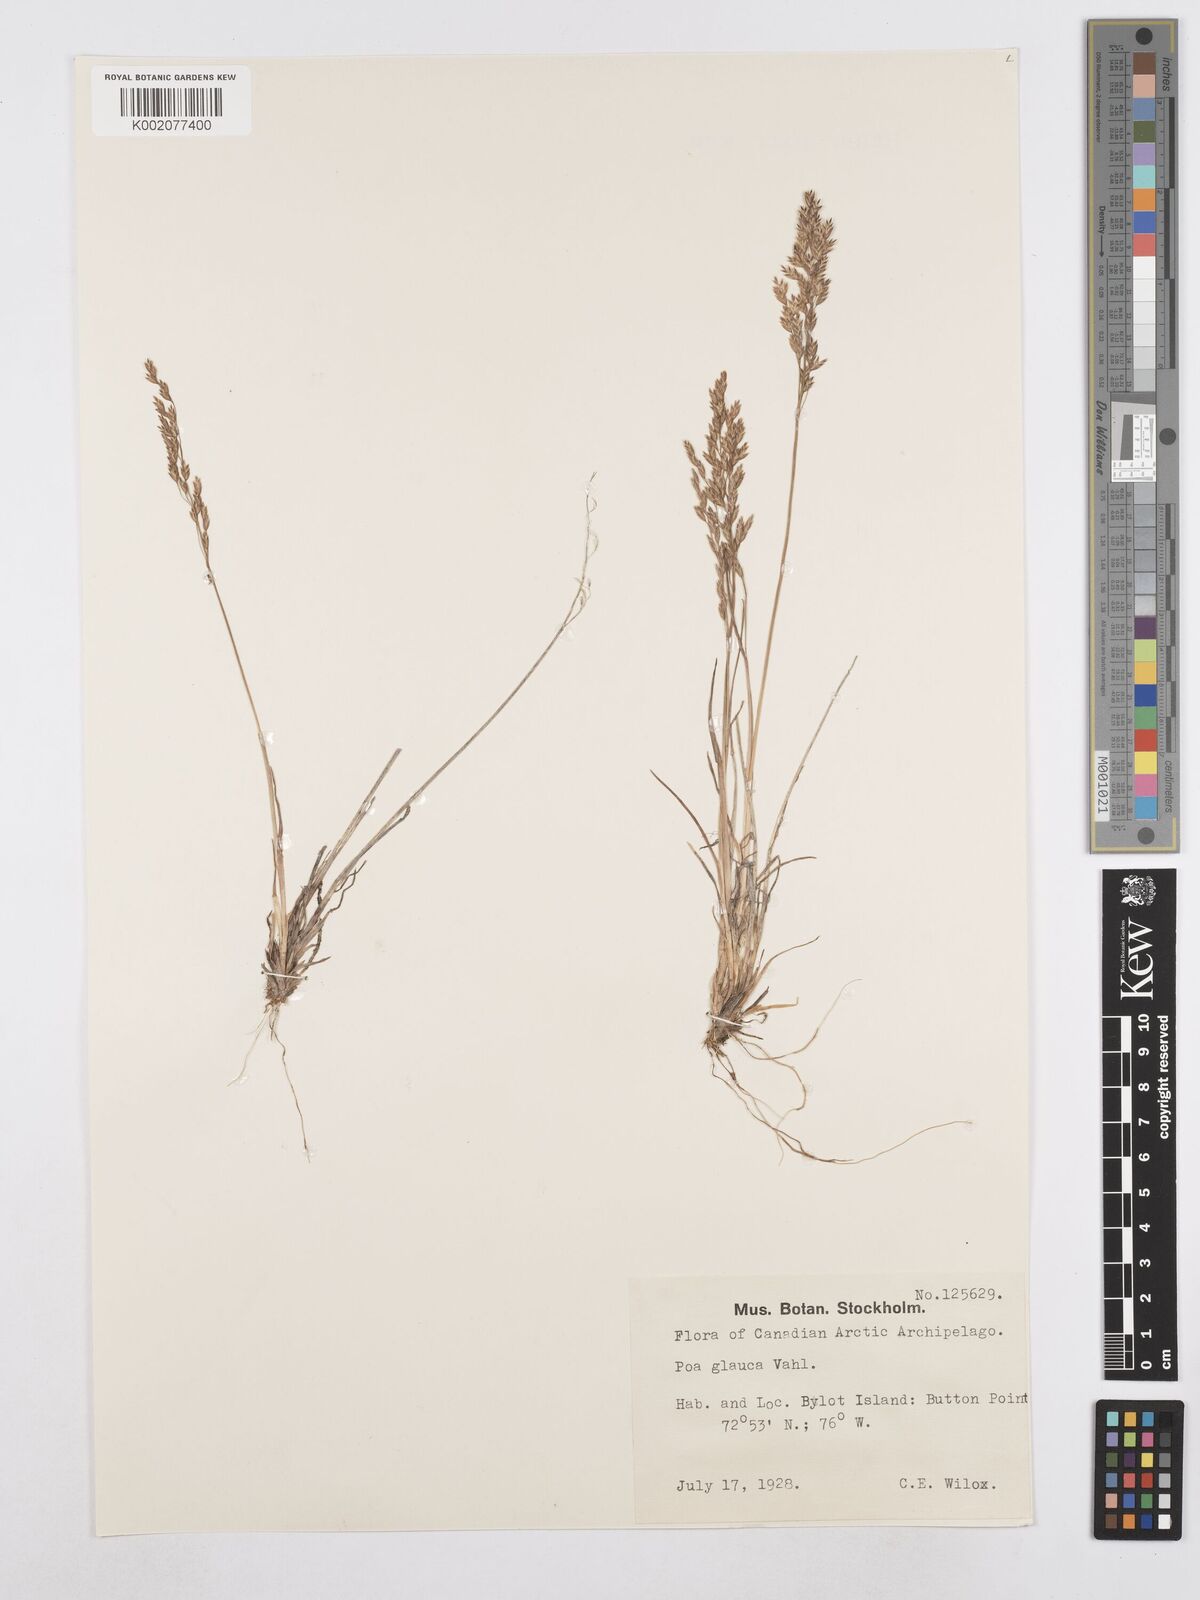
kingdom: Plantae
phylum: Tracheophyta
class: Liliopsida
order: Poales
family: Poaceae
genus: Poa
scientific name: Poa glauca
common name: Glaucous bluegrass
